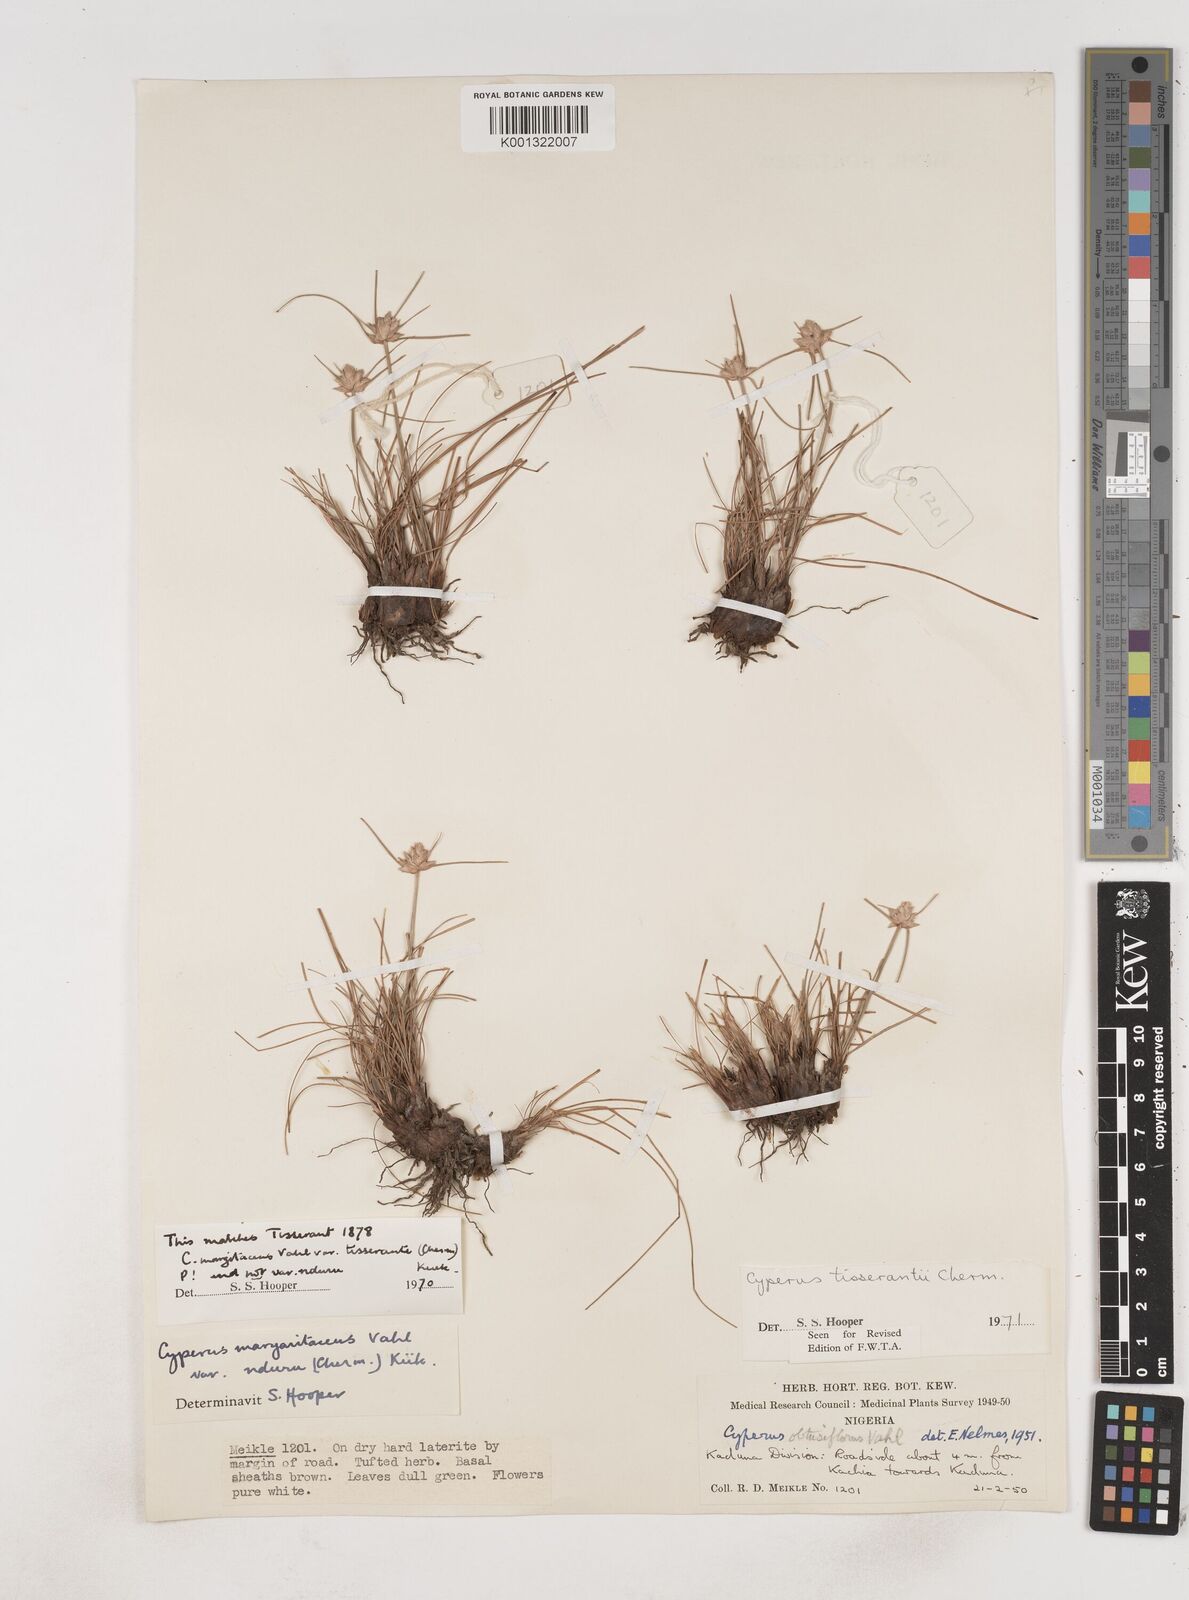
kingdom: Plantae
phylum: Tracheophyta
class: Liliopsida
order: Poales
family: Cyperaceae
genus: Cyperus
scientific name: Cyperus niveus
